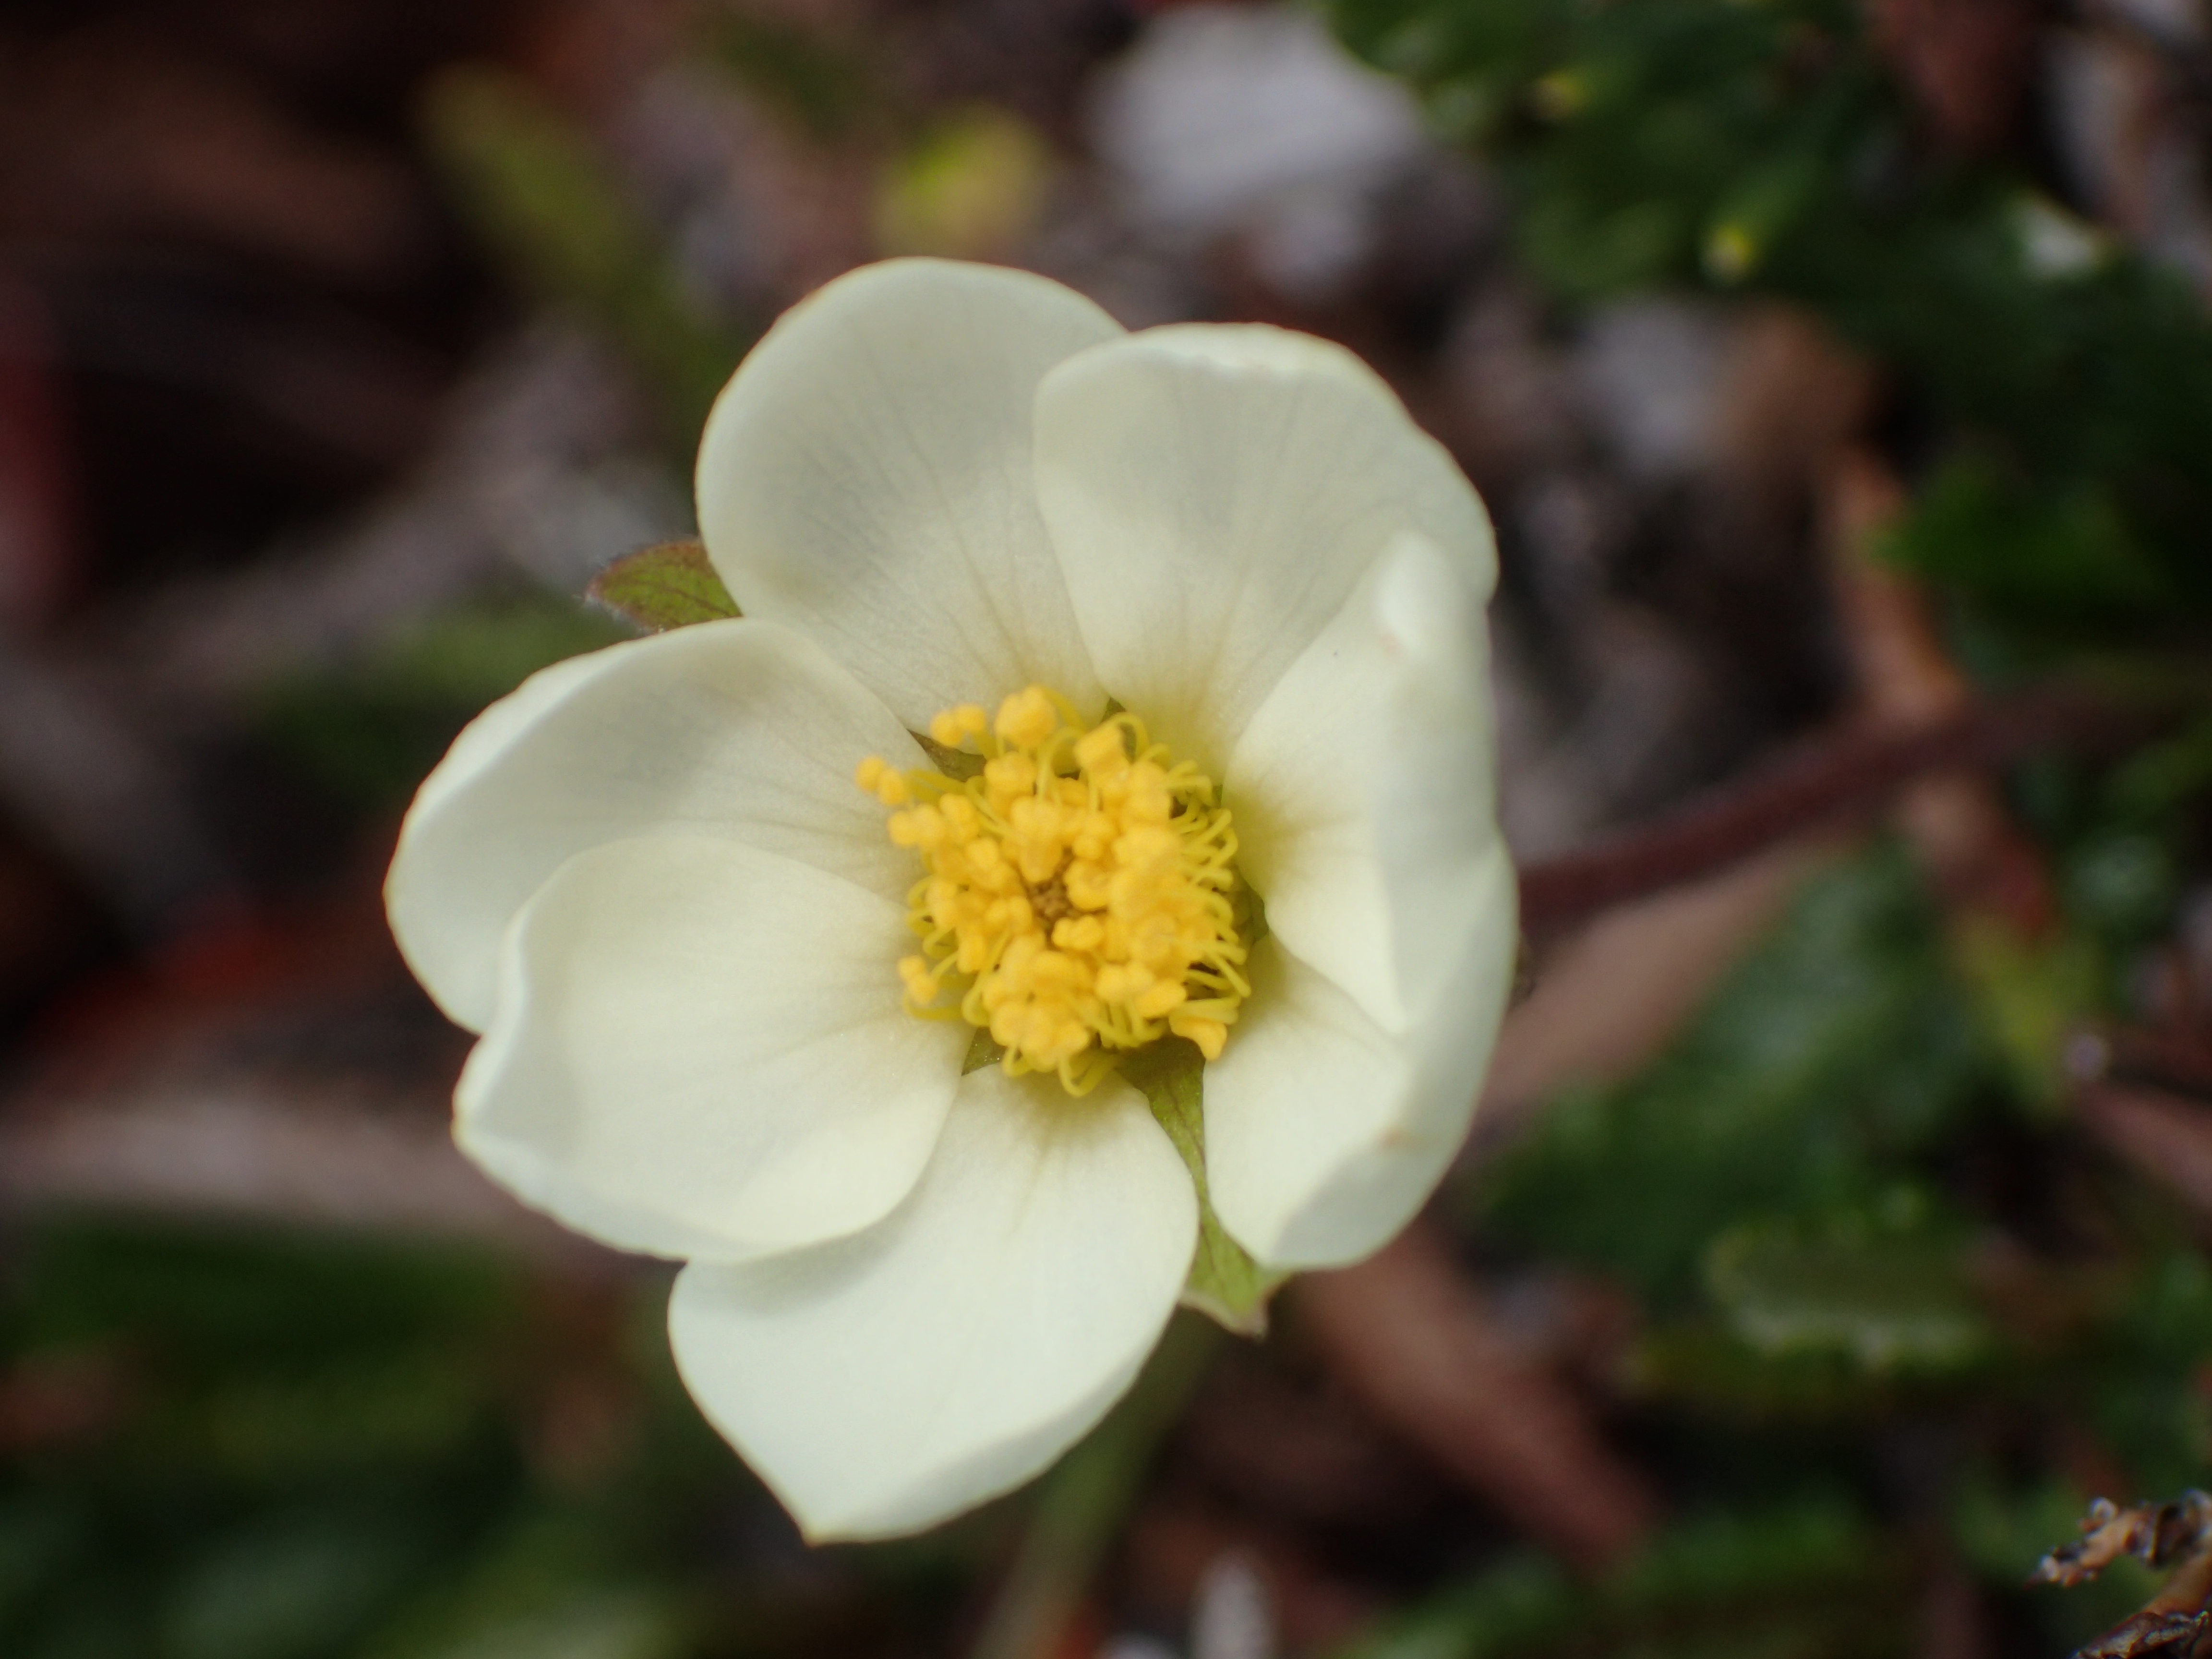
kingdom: Plantae
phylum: Tracheophyta
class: Magnoliopsida
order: Rosales
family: Rosaceae
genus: Dryas
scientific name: Dryas octopetala
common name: Eight-petal mountain-avens
